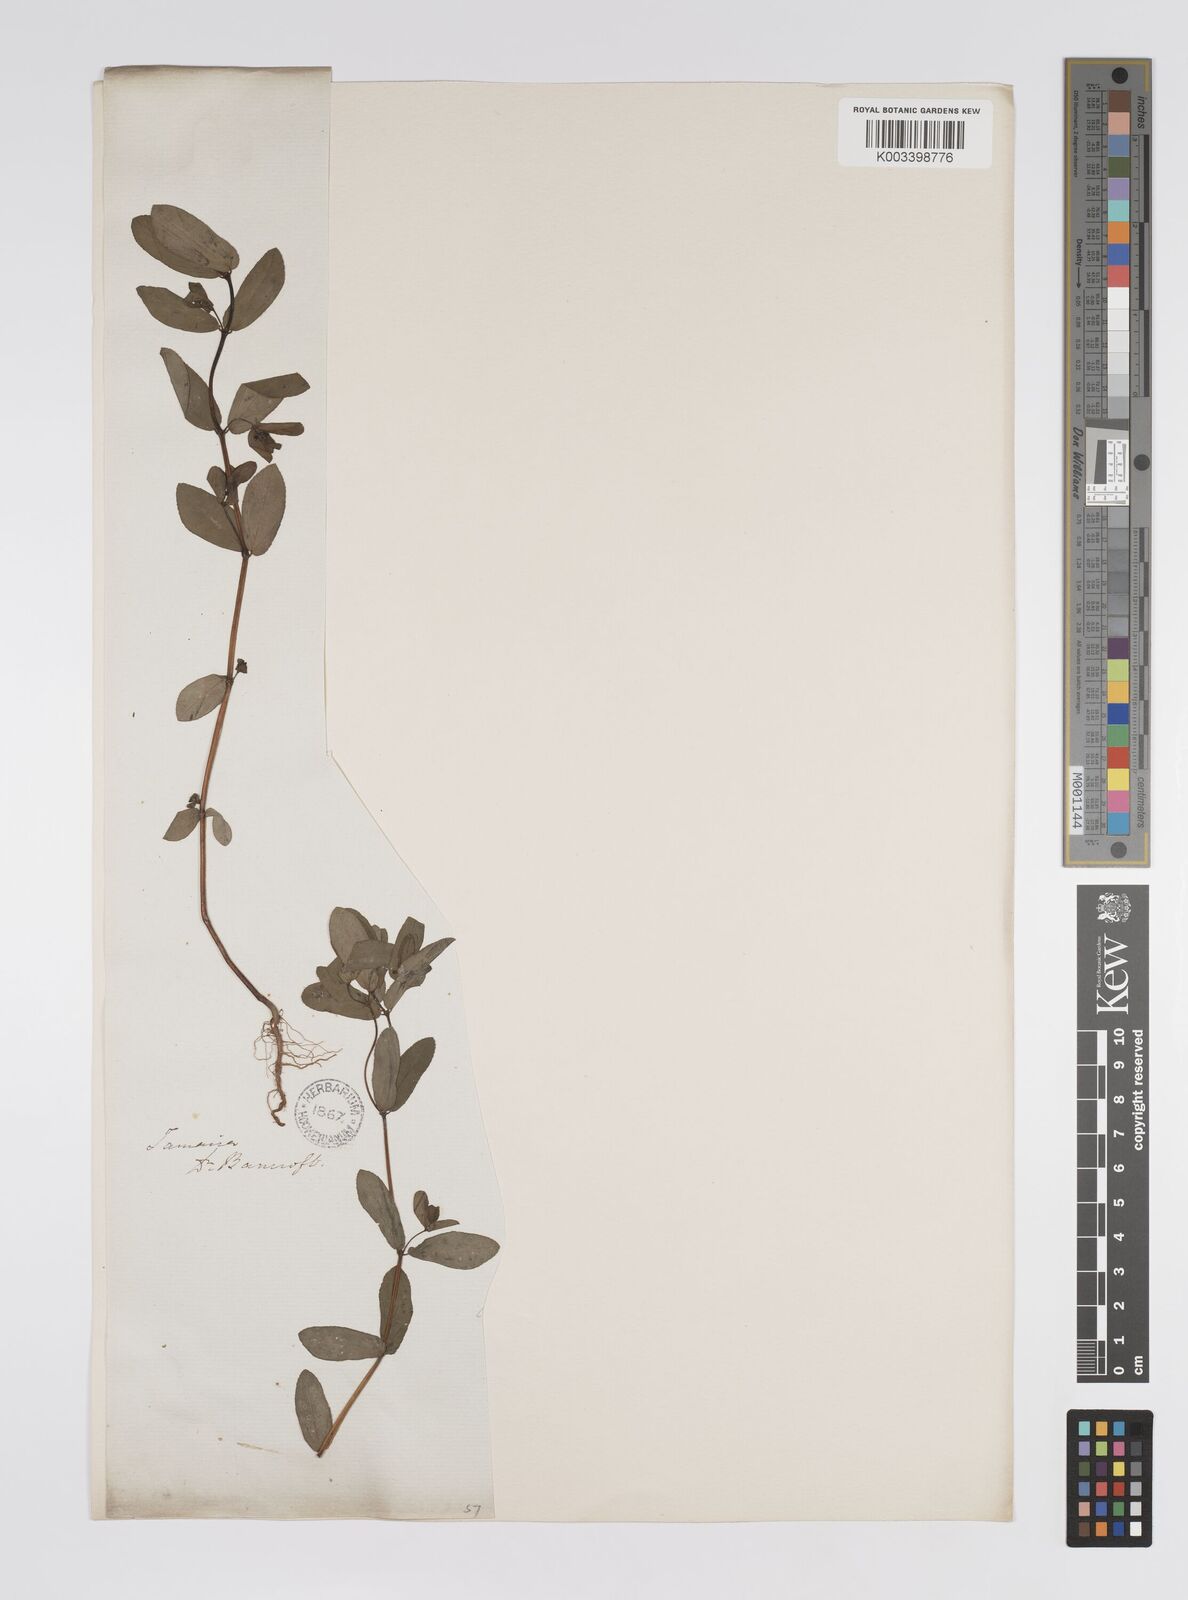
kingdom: Plantae
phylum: Tracheophyta
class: Magnoliopsida
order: Malpighiales
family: Euphorbiaceae
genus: Euphorbia
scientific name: Euphorbia hypericifolia
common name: Graceful sandmat
